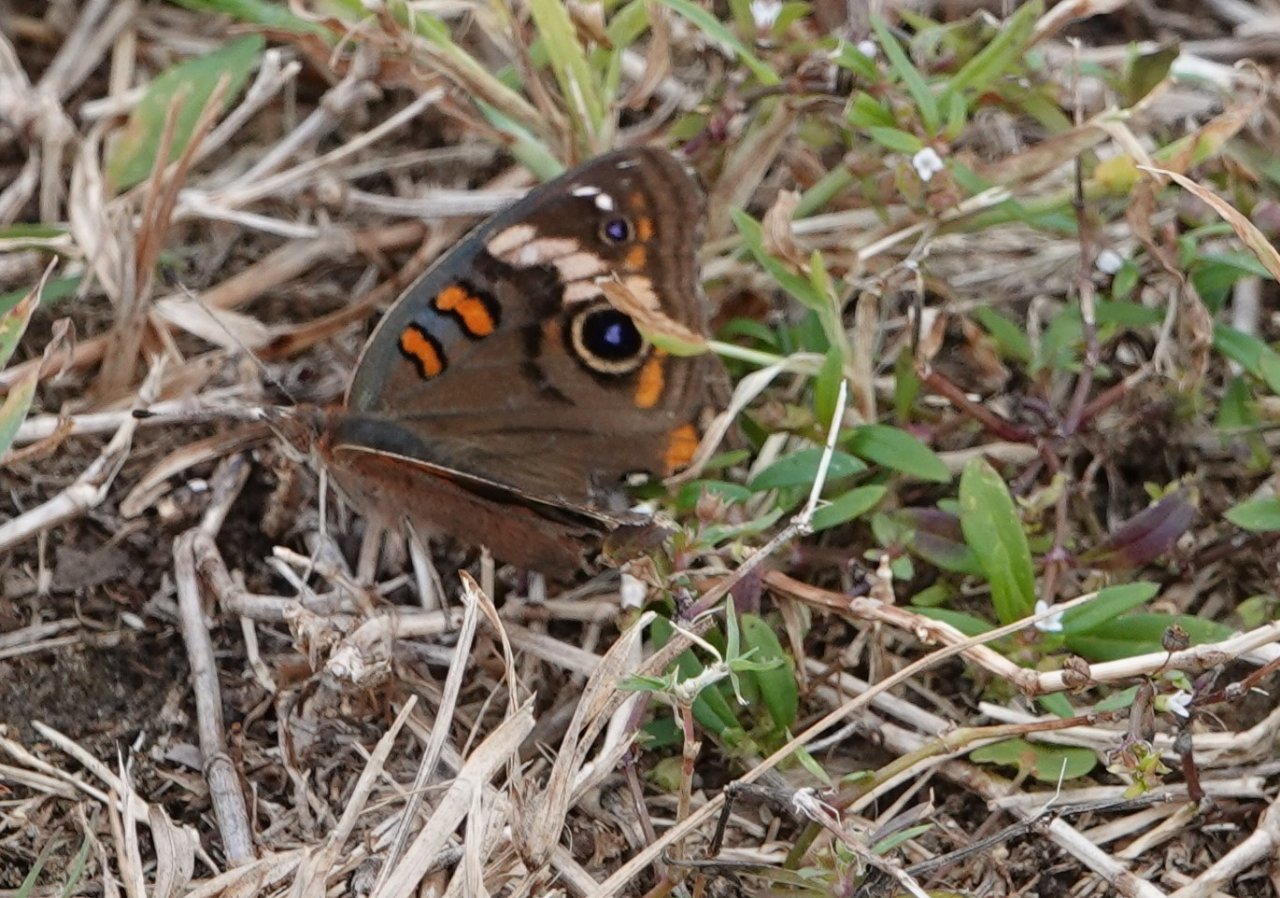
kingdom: Animalia
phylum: Arthropoda
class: Insecta
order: Lepidoptera
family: Nymphalidae
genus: Junonia
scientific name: Junonia coenia
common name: Common Buckeye
